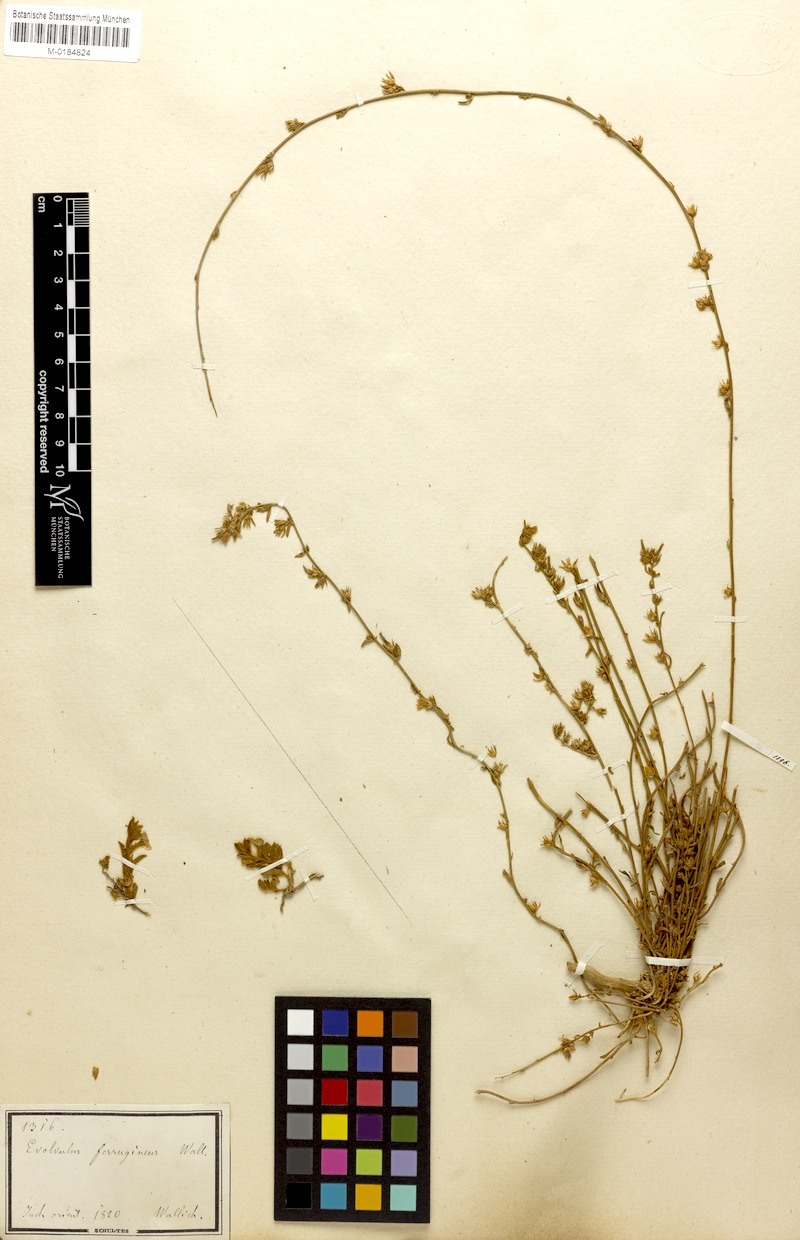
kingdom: Plantae
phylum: Tracheophyta
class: Magnoliopsida
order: Solanales
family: Convolvulaceae
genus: Convolvulus
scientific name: Convolvulus prostratus
